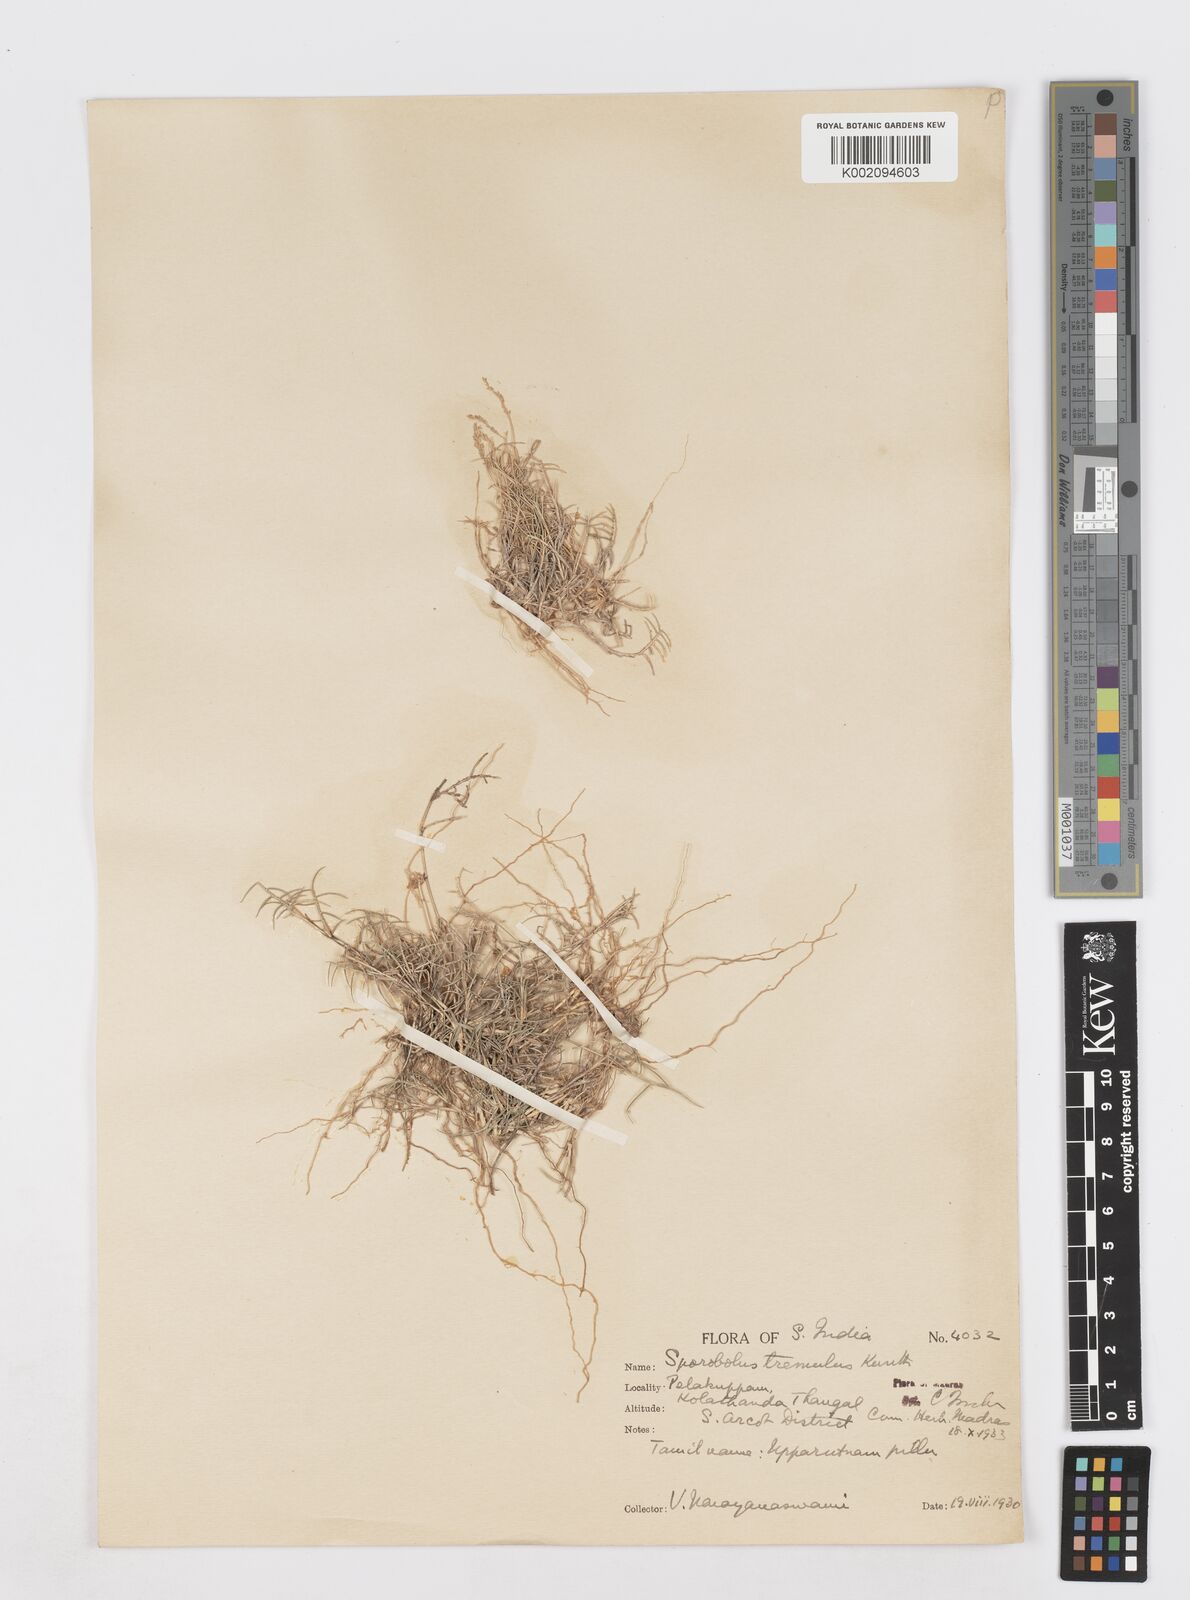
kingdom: Plantae
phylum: Tracheophyta
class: Liliopsida
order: Poales
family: Poaceae
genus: Sporobolus
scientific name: Sporobolus virginicus
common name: Beach dropseed
